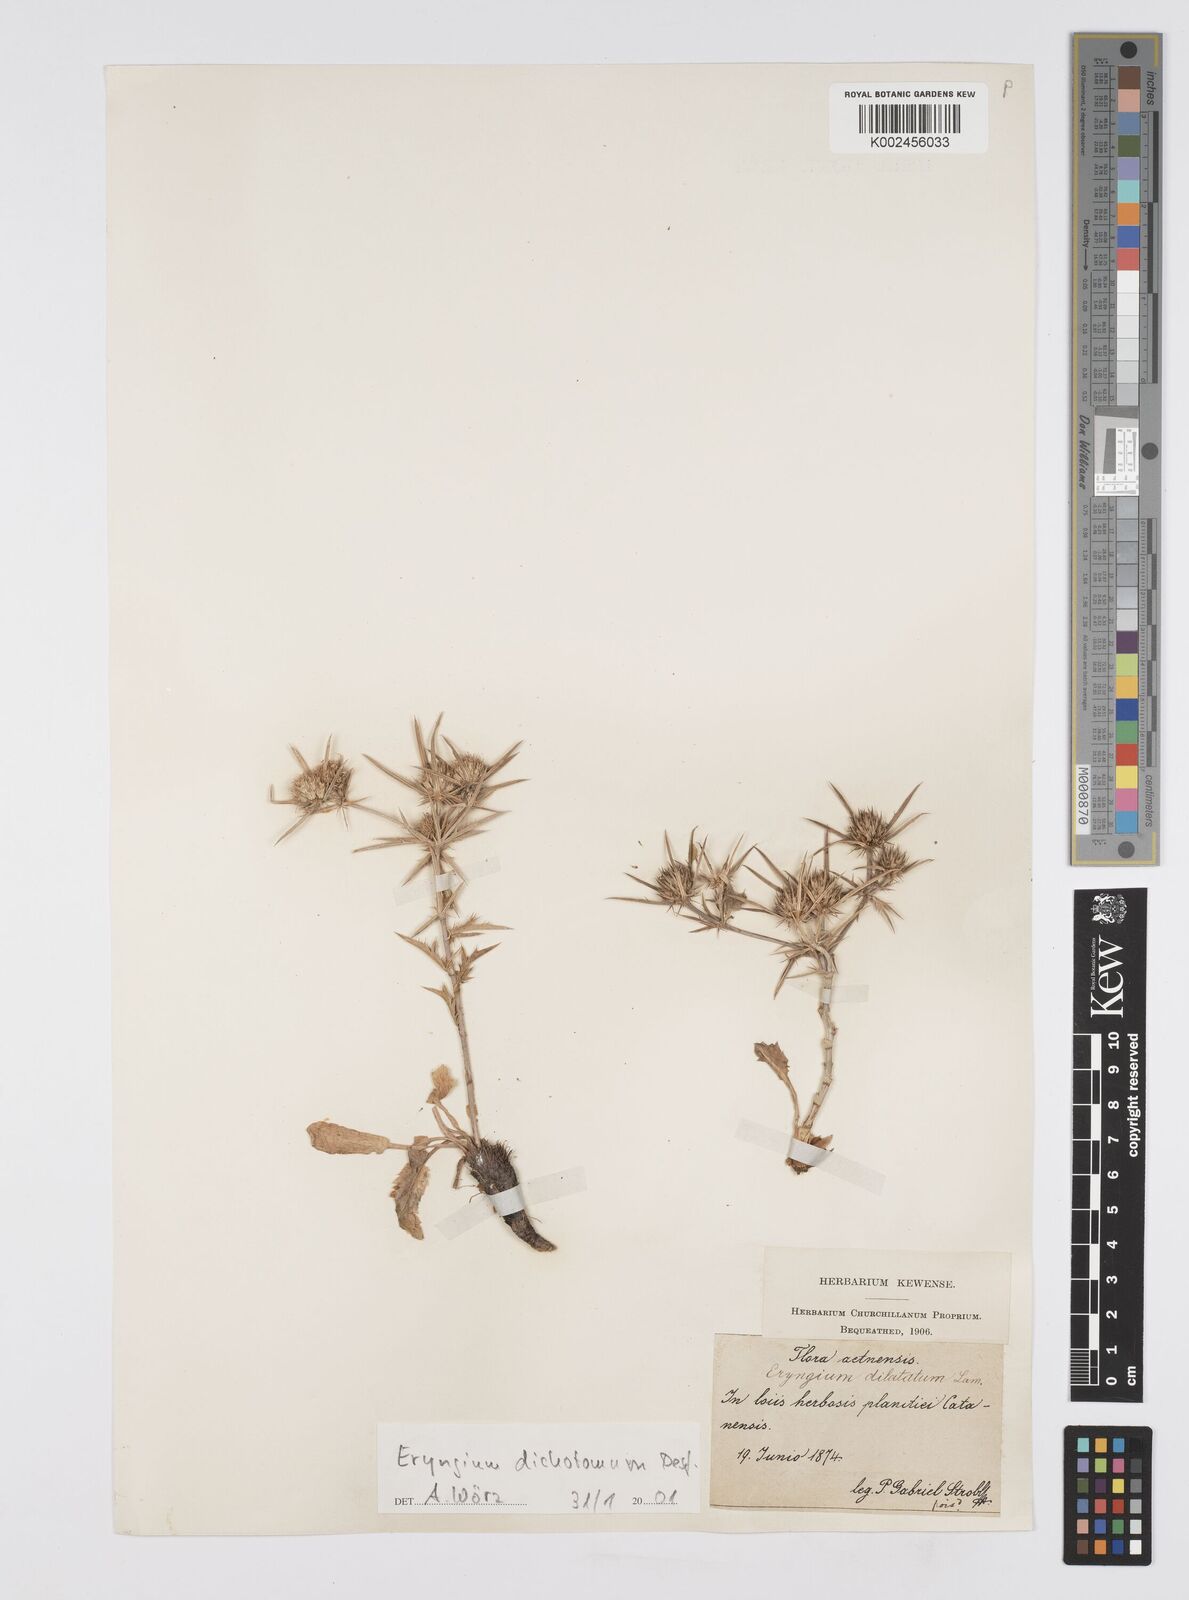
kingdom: Plantae
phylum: Tracheophyta
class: Magnoliopsida
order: Apiales
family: Apiaceae
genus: Eryngium
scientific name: Eryngium dichotomum
